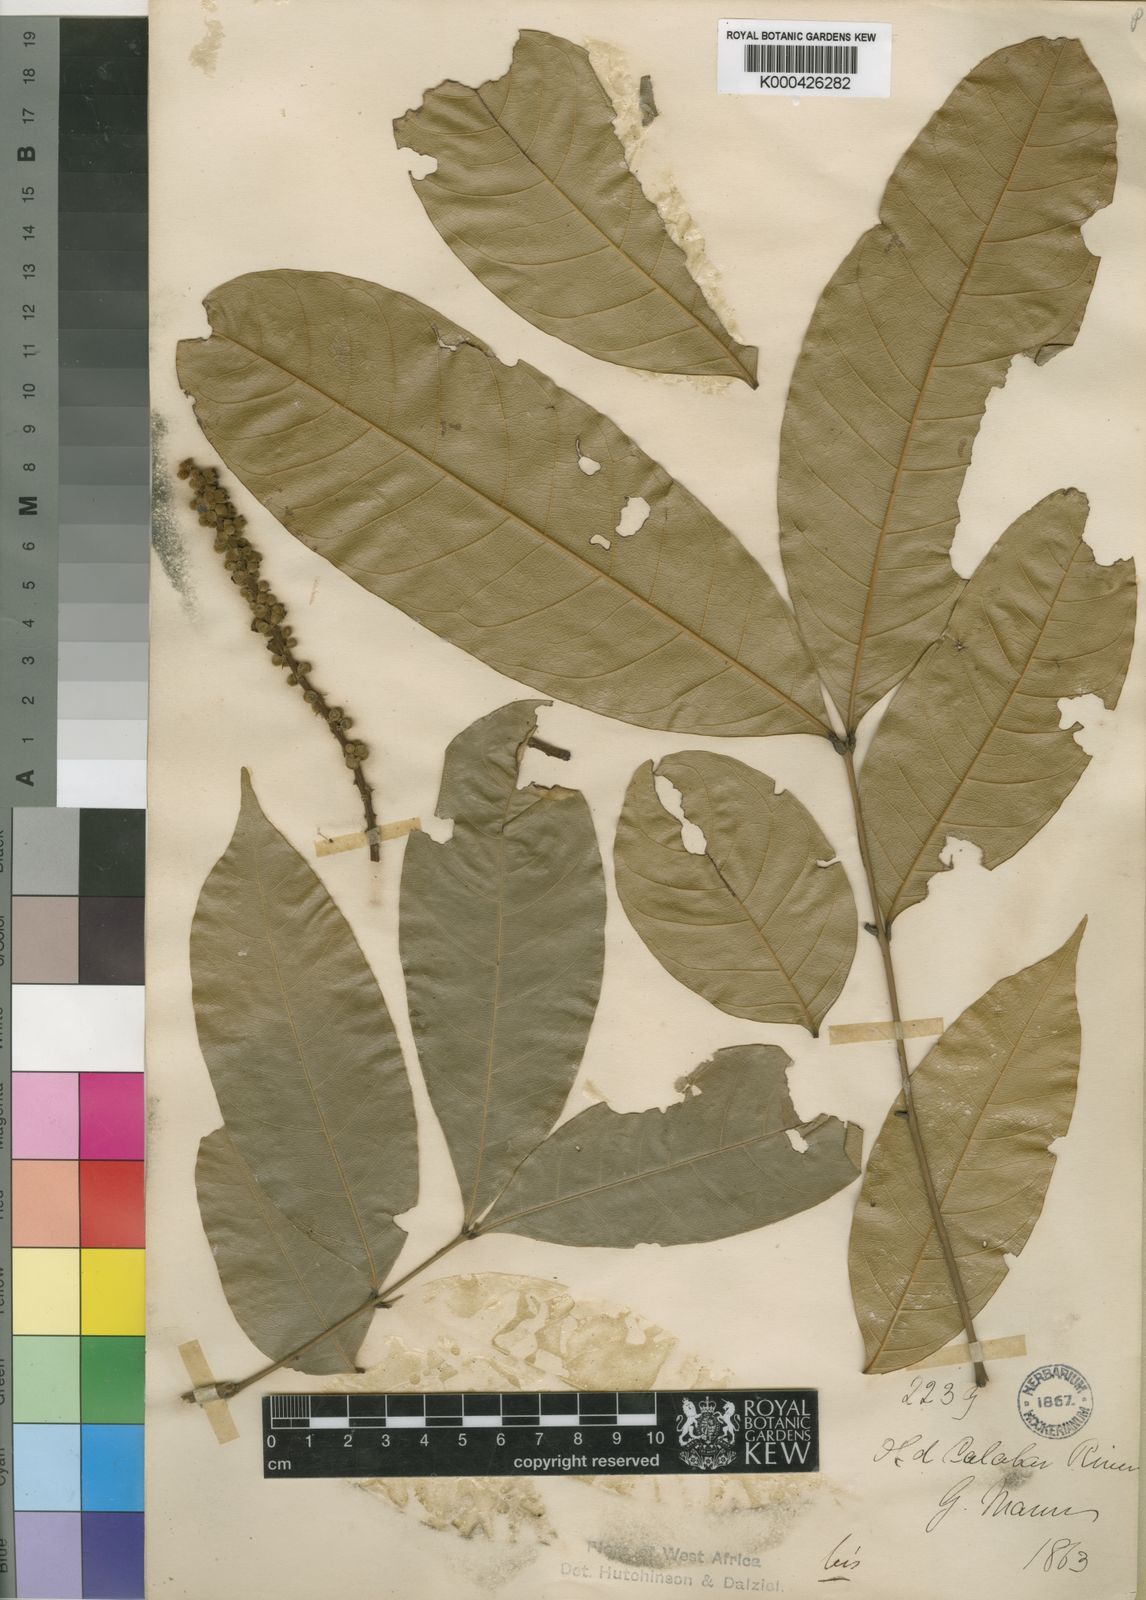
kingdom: Plantae
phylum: Tracheophyta
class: Magnoliopsida
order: Sapindales
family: Sapindaceae
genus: Placodiscus
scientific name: Placodiscus turbinatus
